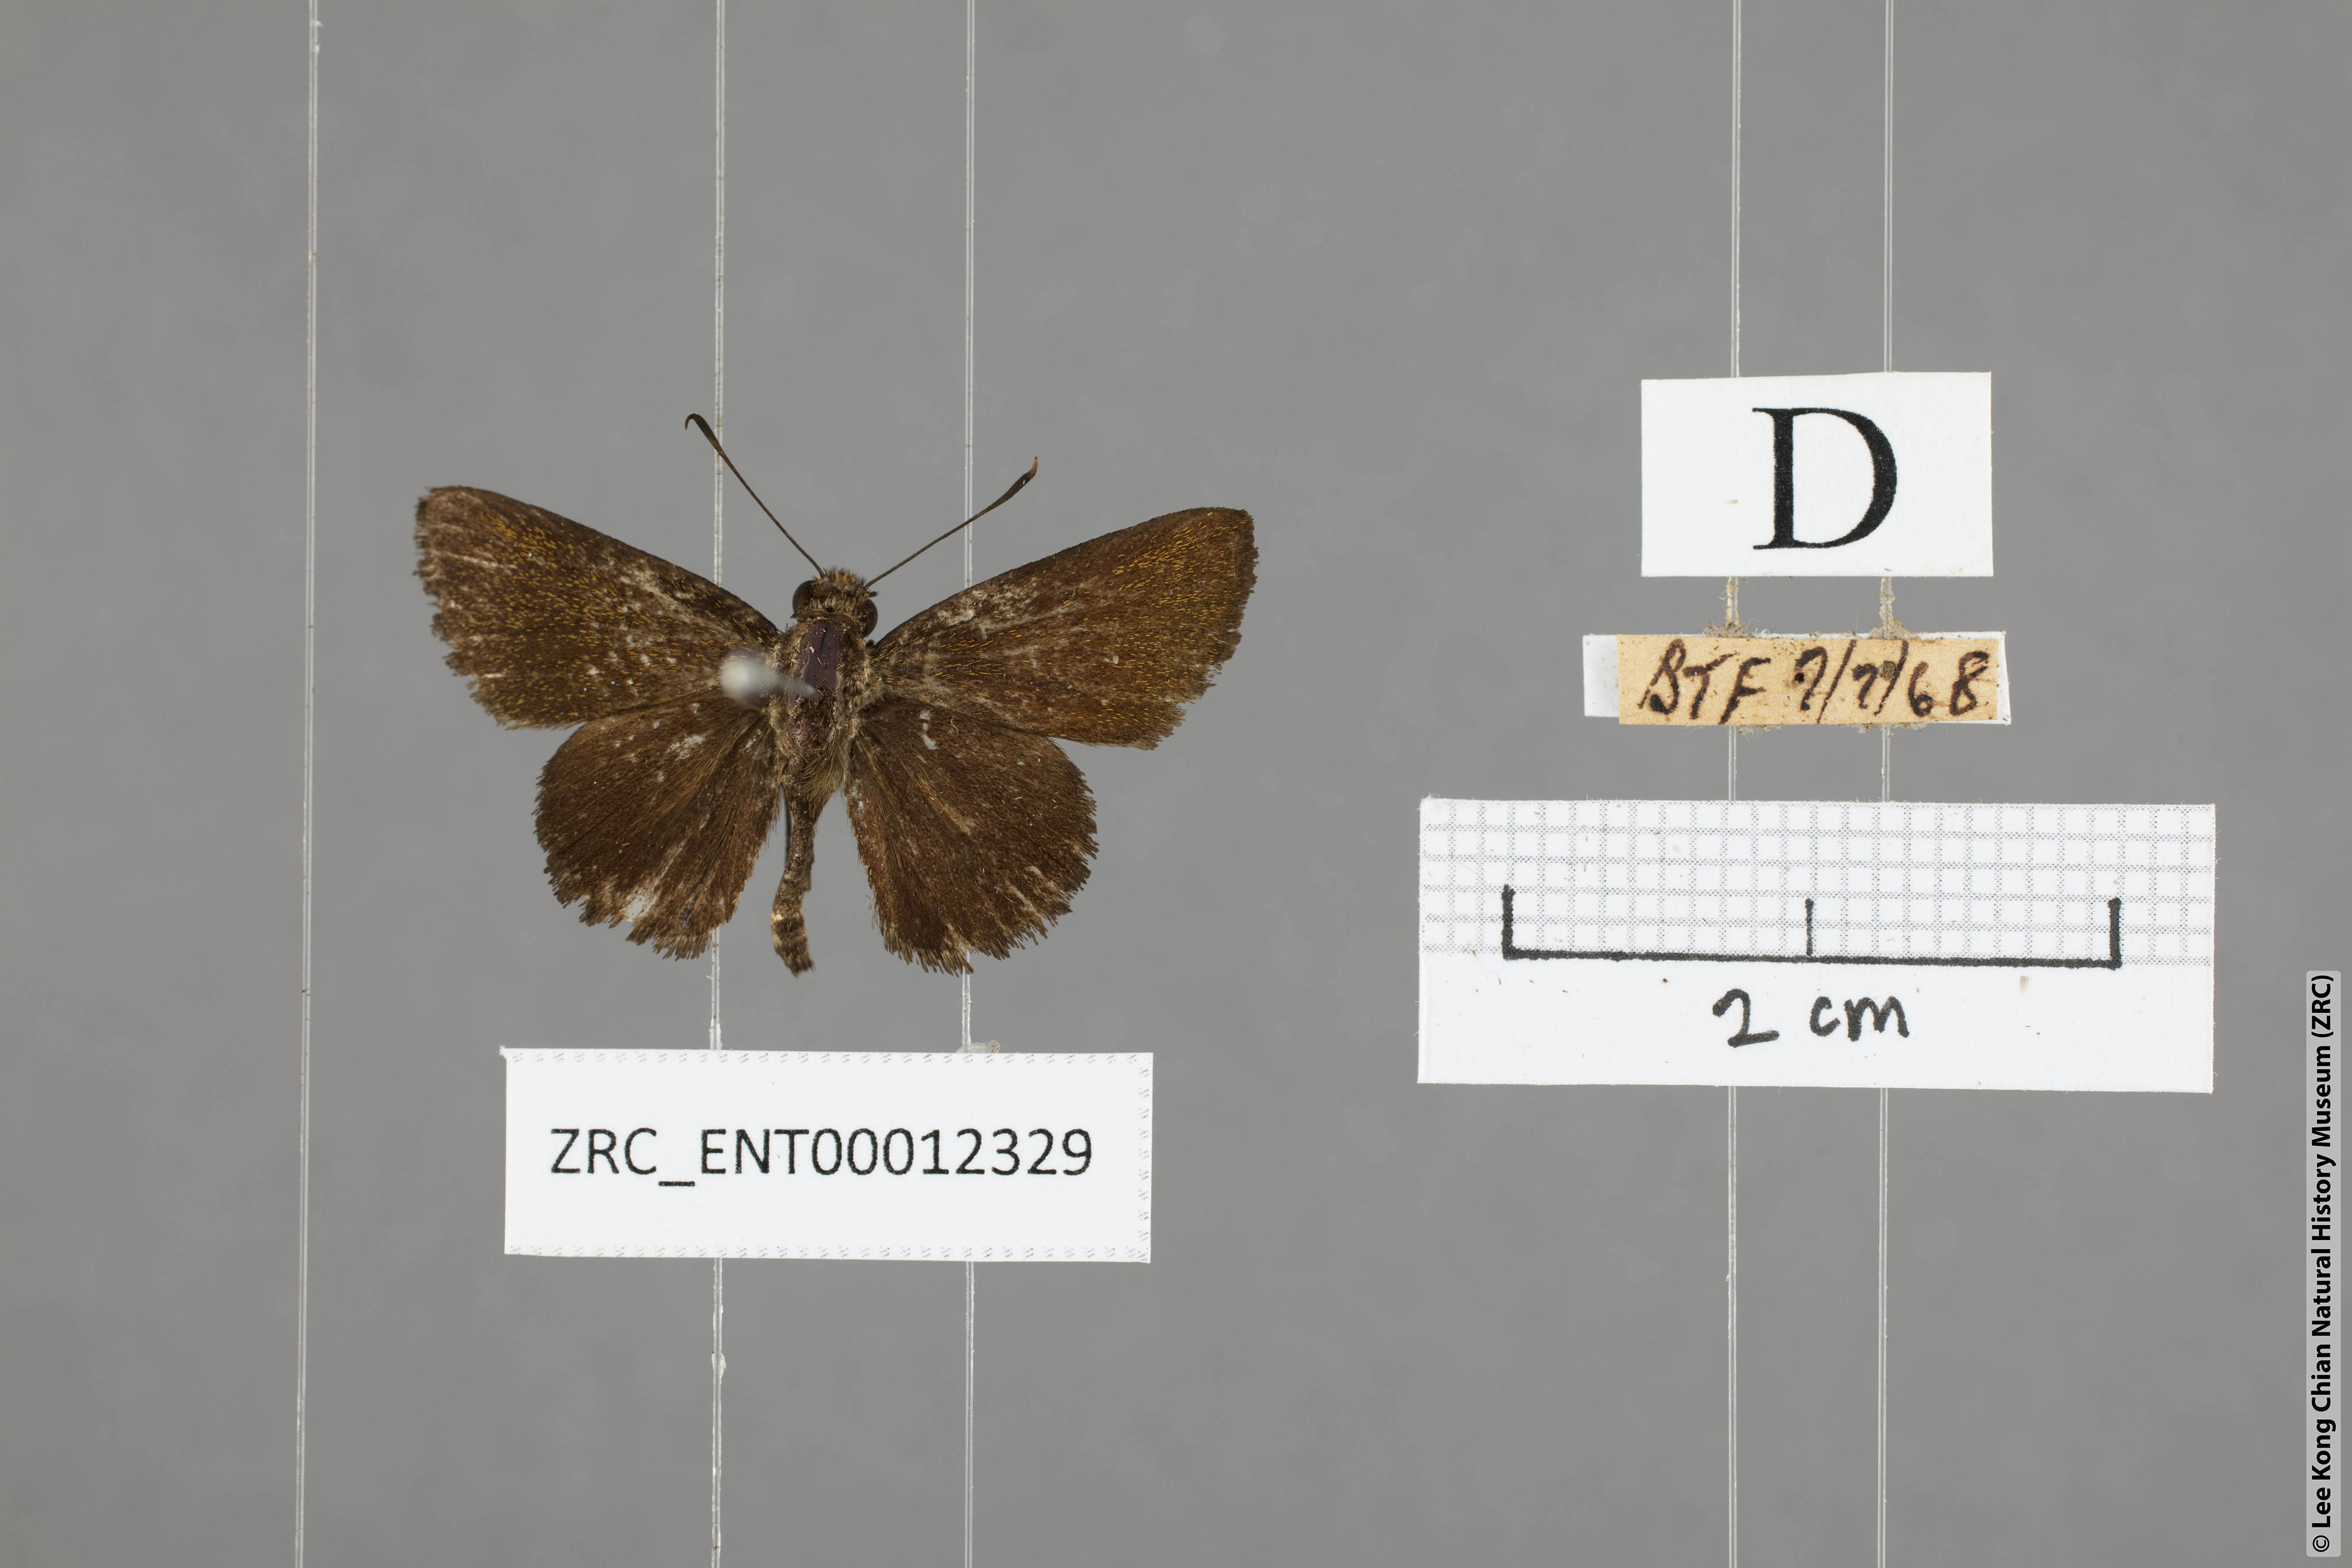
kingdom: Animalia
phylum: Arthropoda
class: Insecta
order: Lepidoptera
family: Hesperiidae
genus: Arnetta
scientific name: Arnetta verones
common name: Sumatran bob
